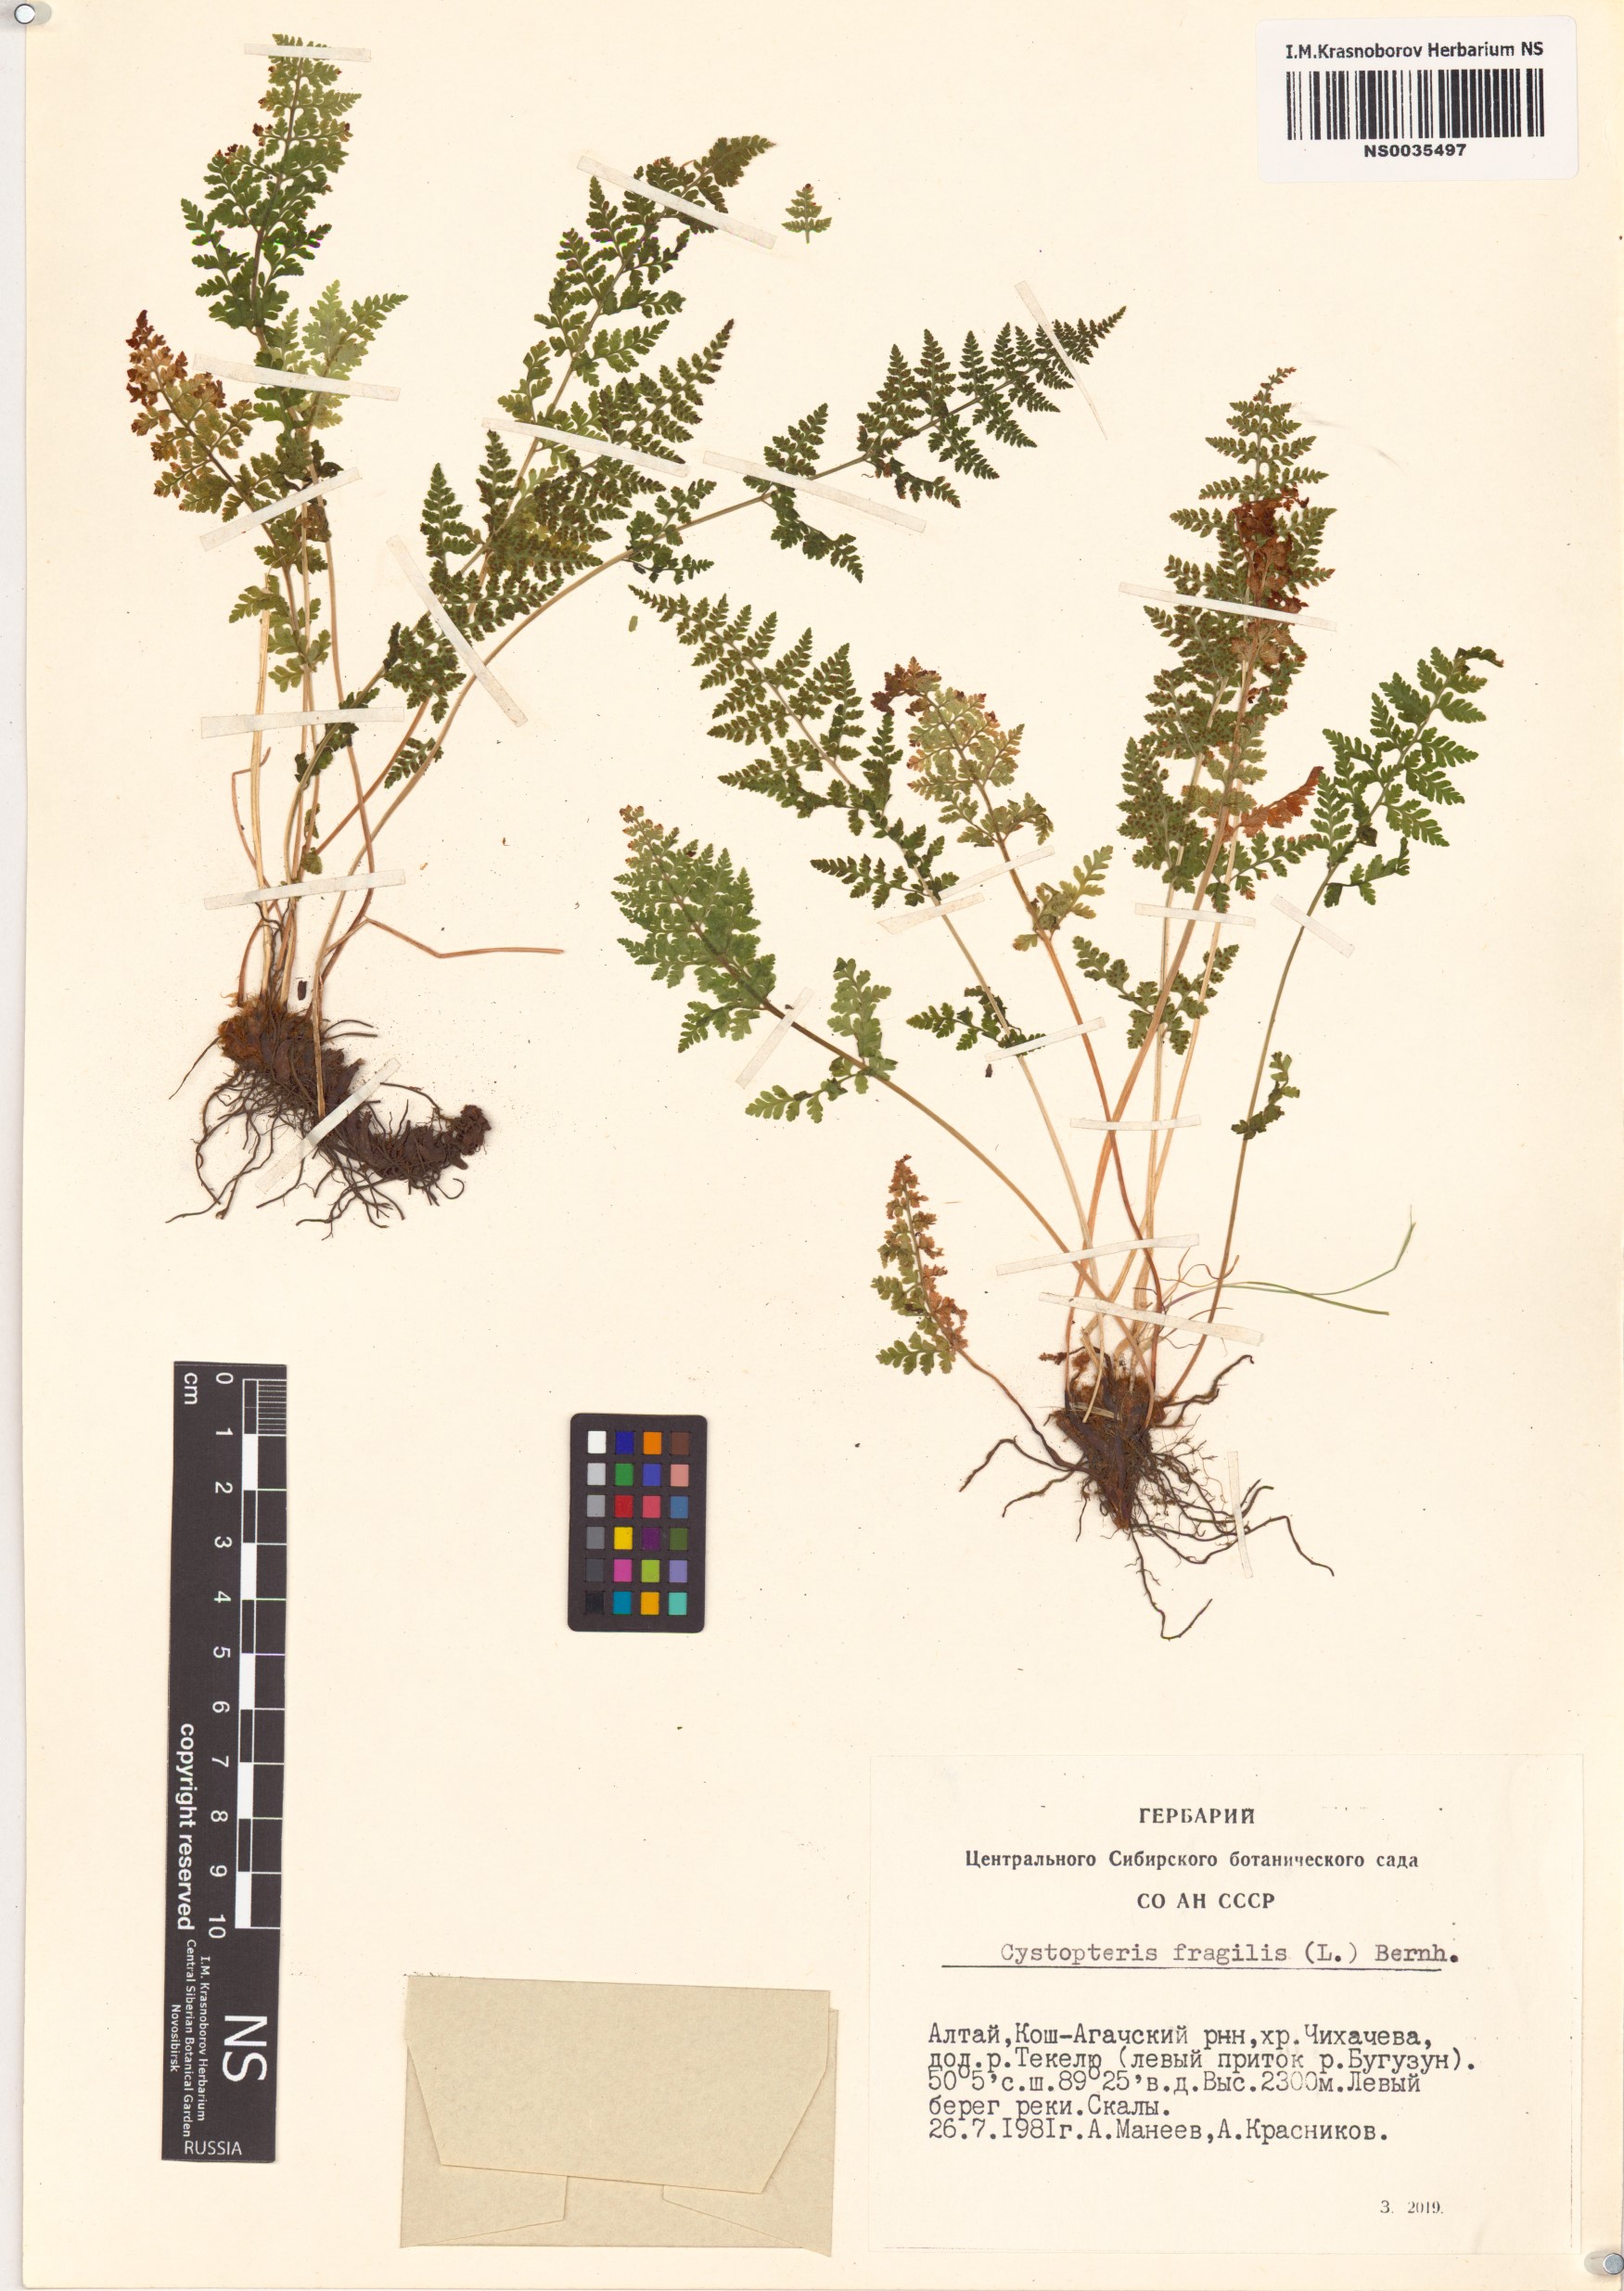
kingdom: Plantae
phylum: Tracheophyta
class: Polypodiopsida
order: Polypodiales
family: Cystopteridaceae
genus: Cystopteris
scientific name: Cystopteris fragilis
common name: Brittle bladder fern
